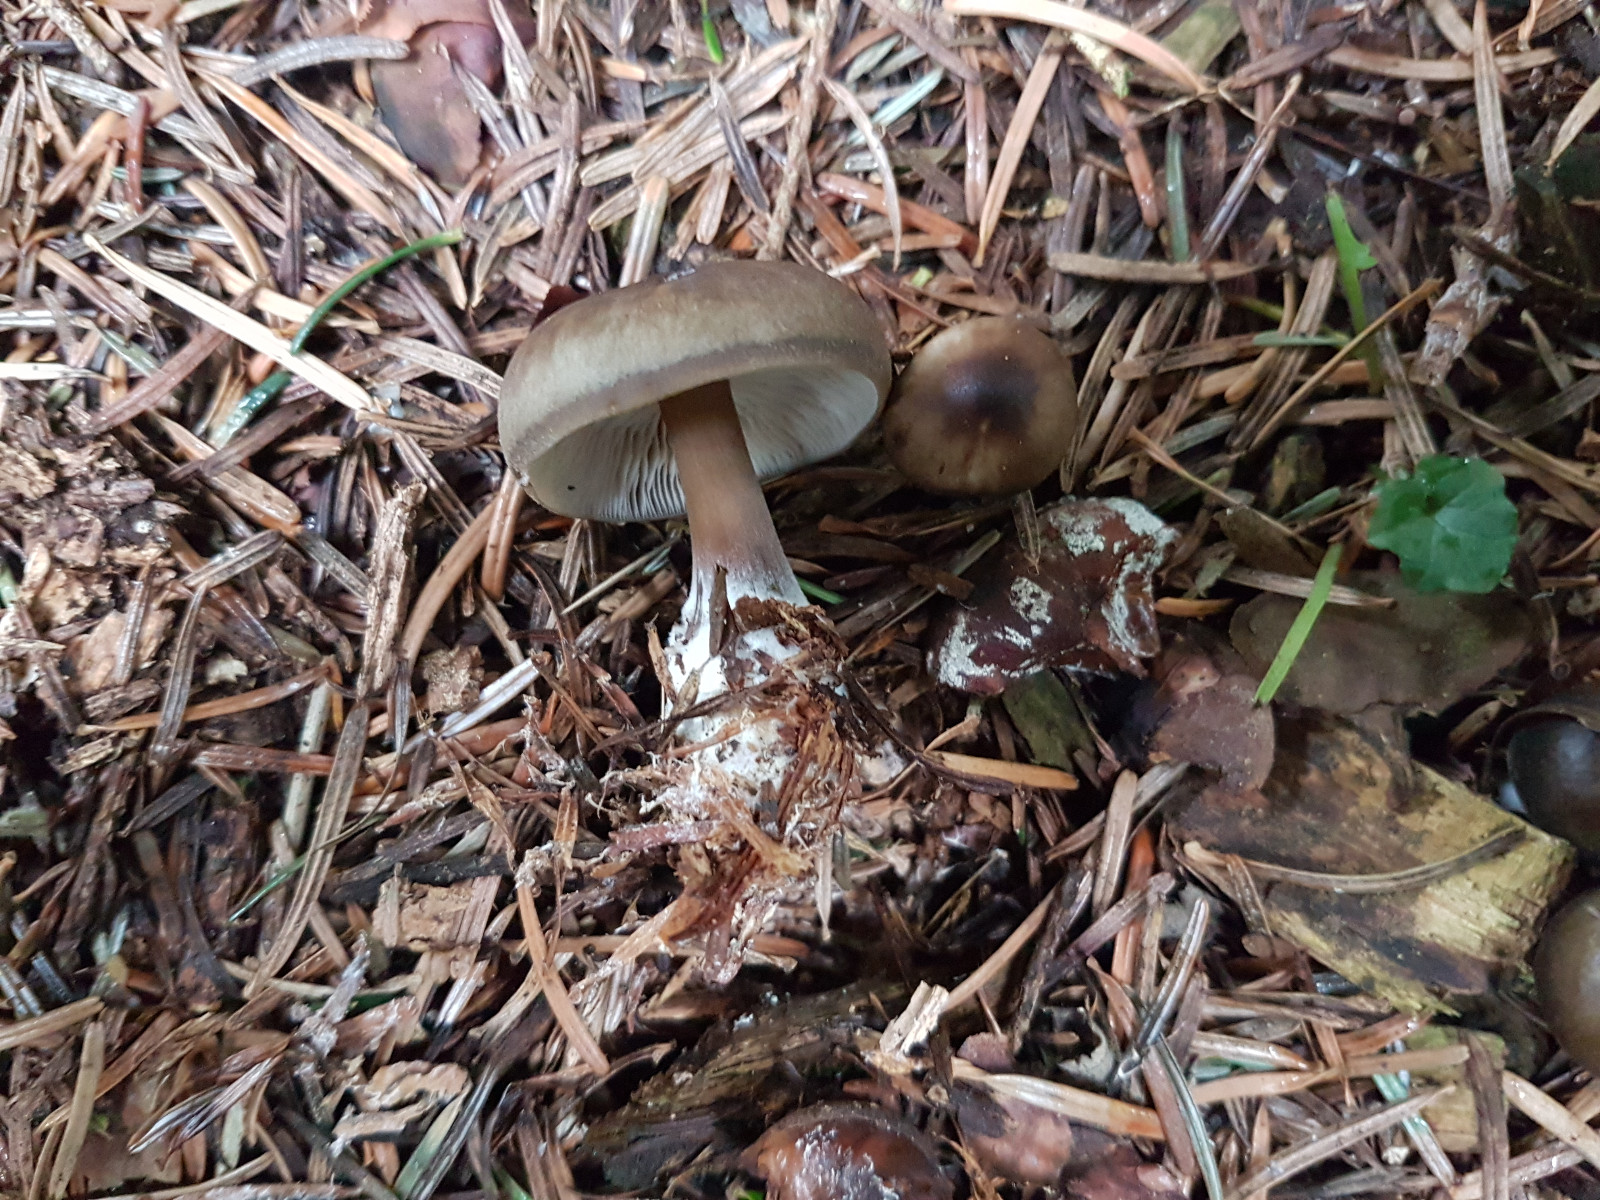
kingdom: Fungi
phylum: Basidiomycota
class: Agaricomycetes
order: Agaricales
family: Omphalotaceae
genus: Rhodocollybia
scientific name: Rhodocollybia asema
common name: horngrå fladhat
